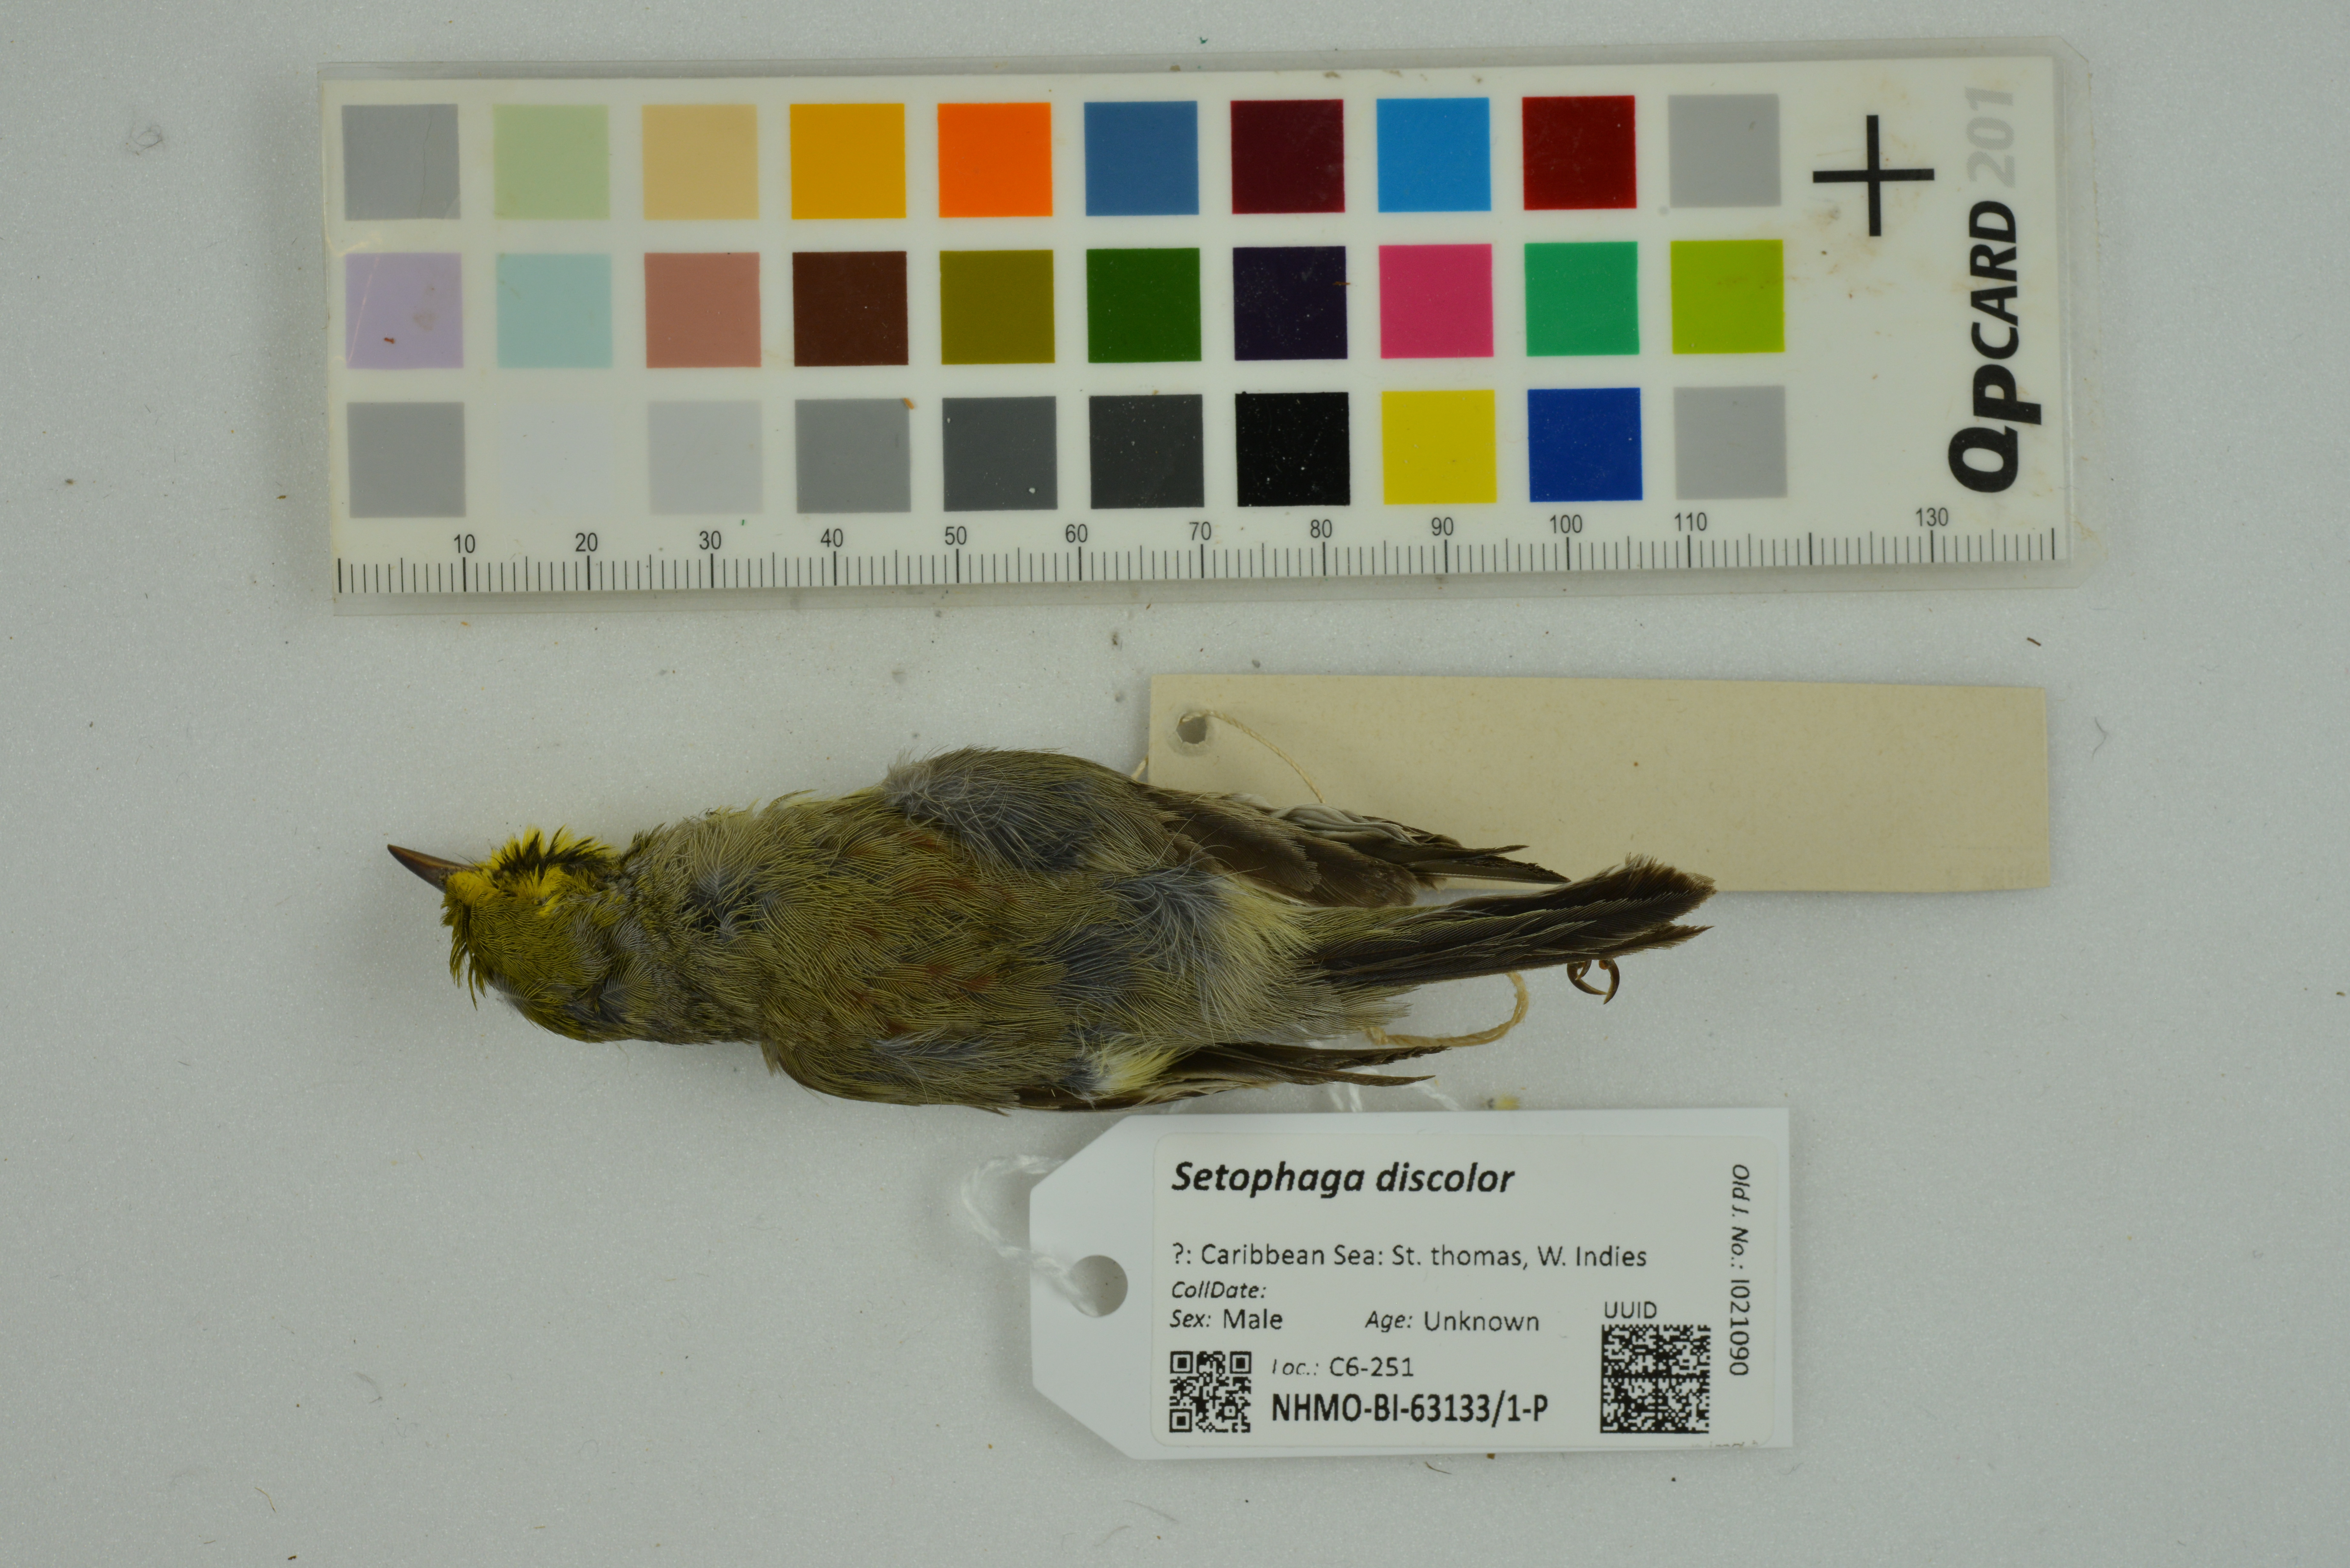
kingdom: Animalia
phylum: Chordata
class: Aves
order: Passeriformes
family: Parulidae
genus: Setophaga
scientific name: Setophaga discolor
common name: Prairie warbler
